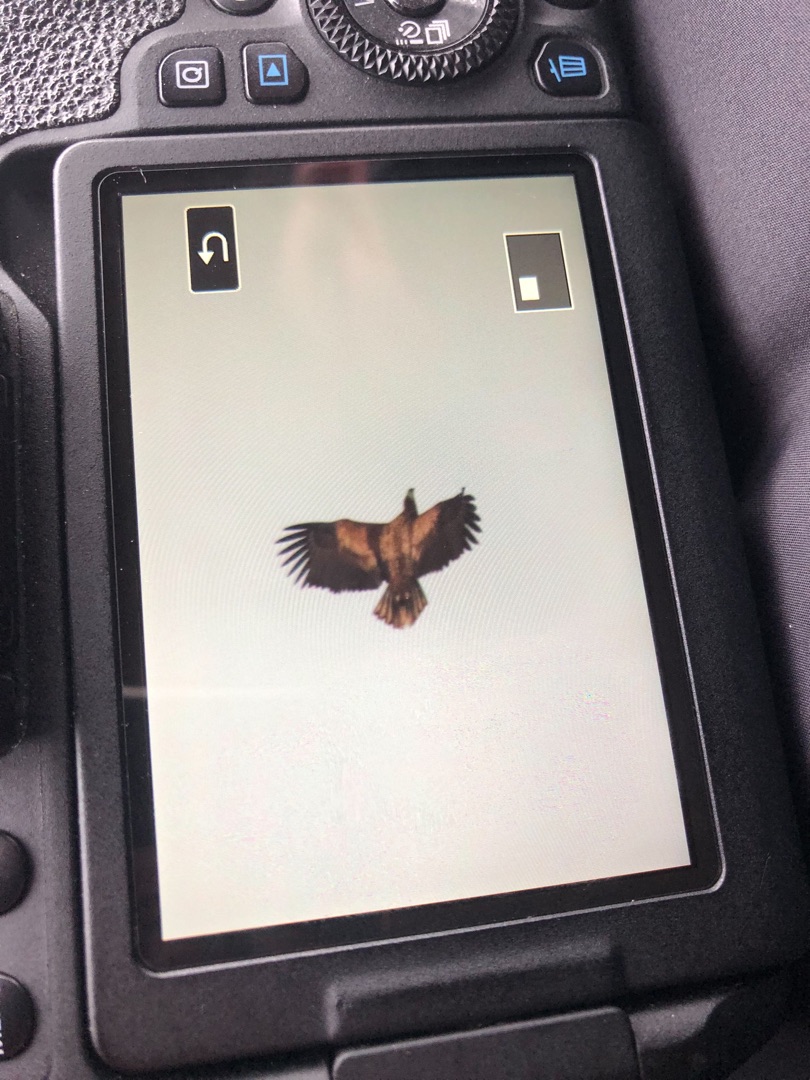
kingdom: Animalia
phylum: Chordata
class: Aves
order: Accipitriformes
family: Accipitridae
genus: Haliaeetus
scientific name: Haliaeetus albicilla
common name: Havørn
